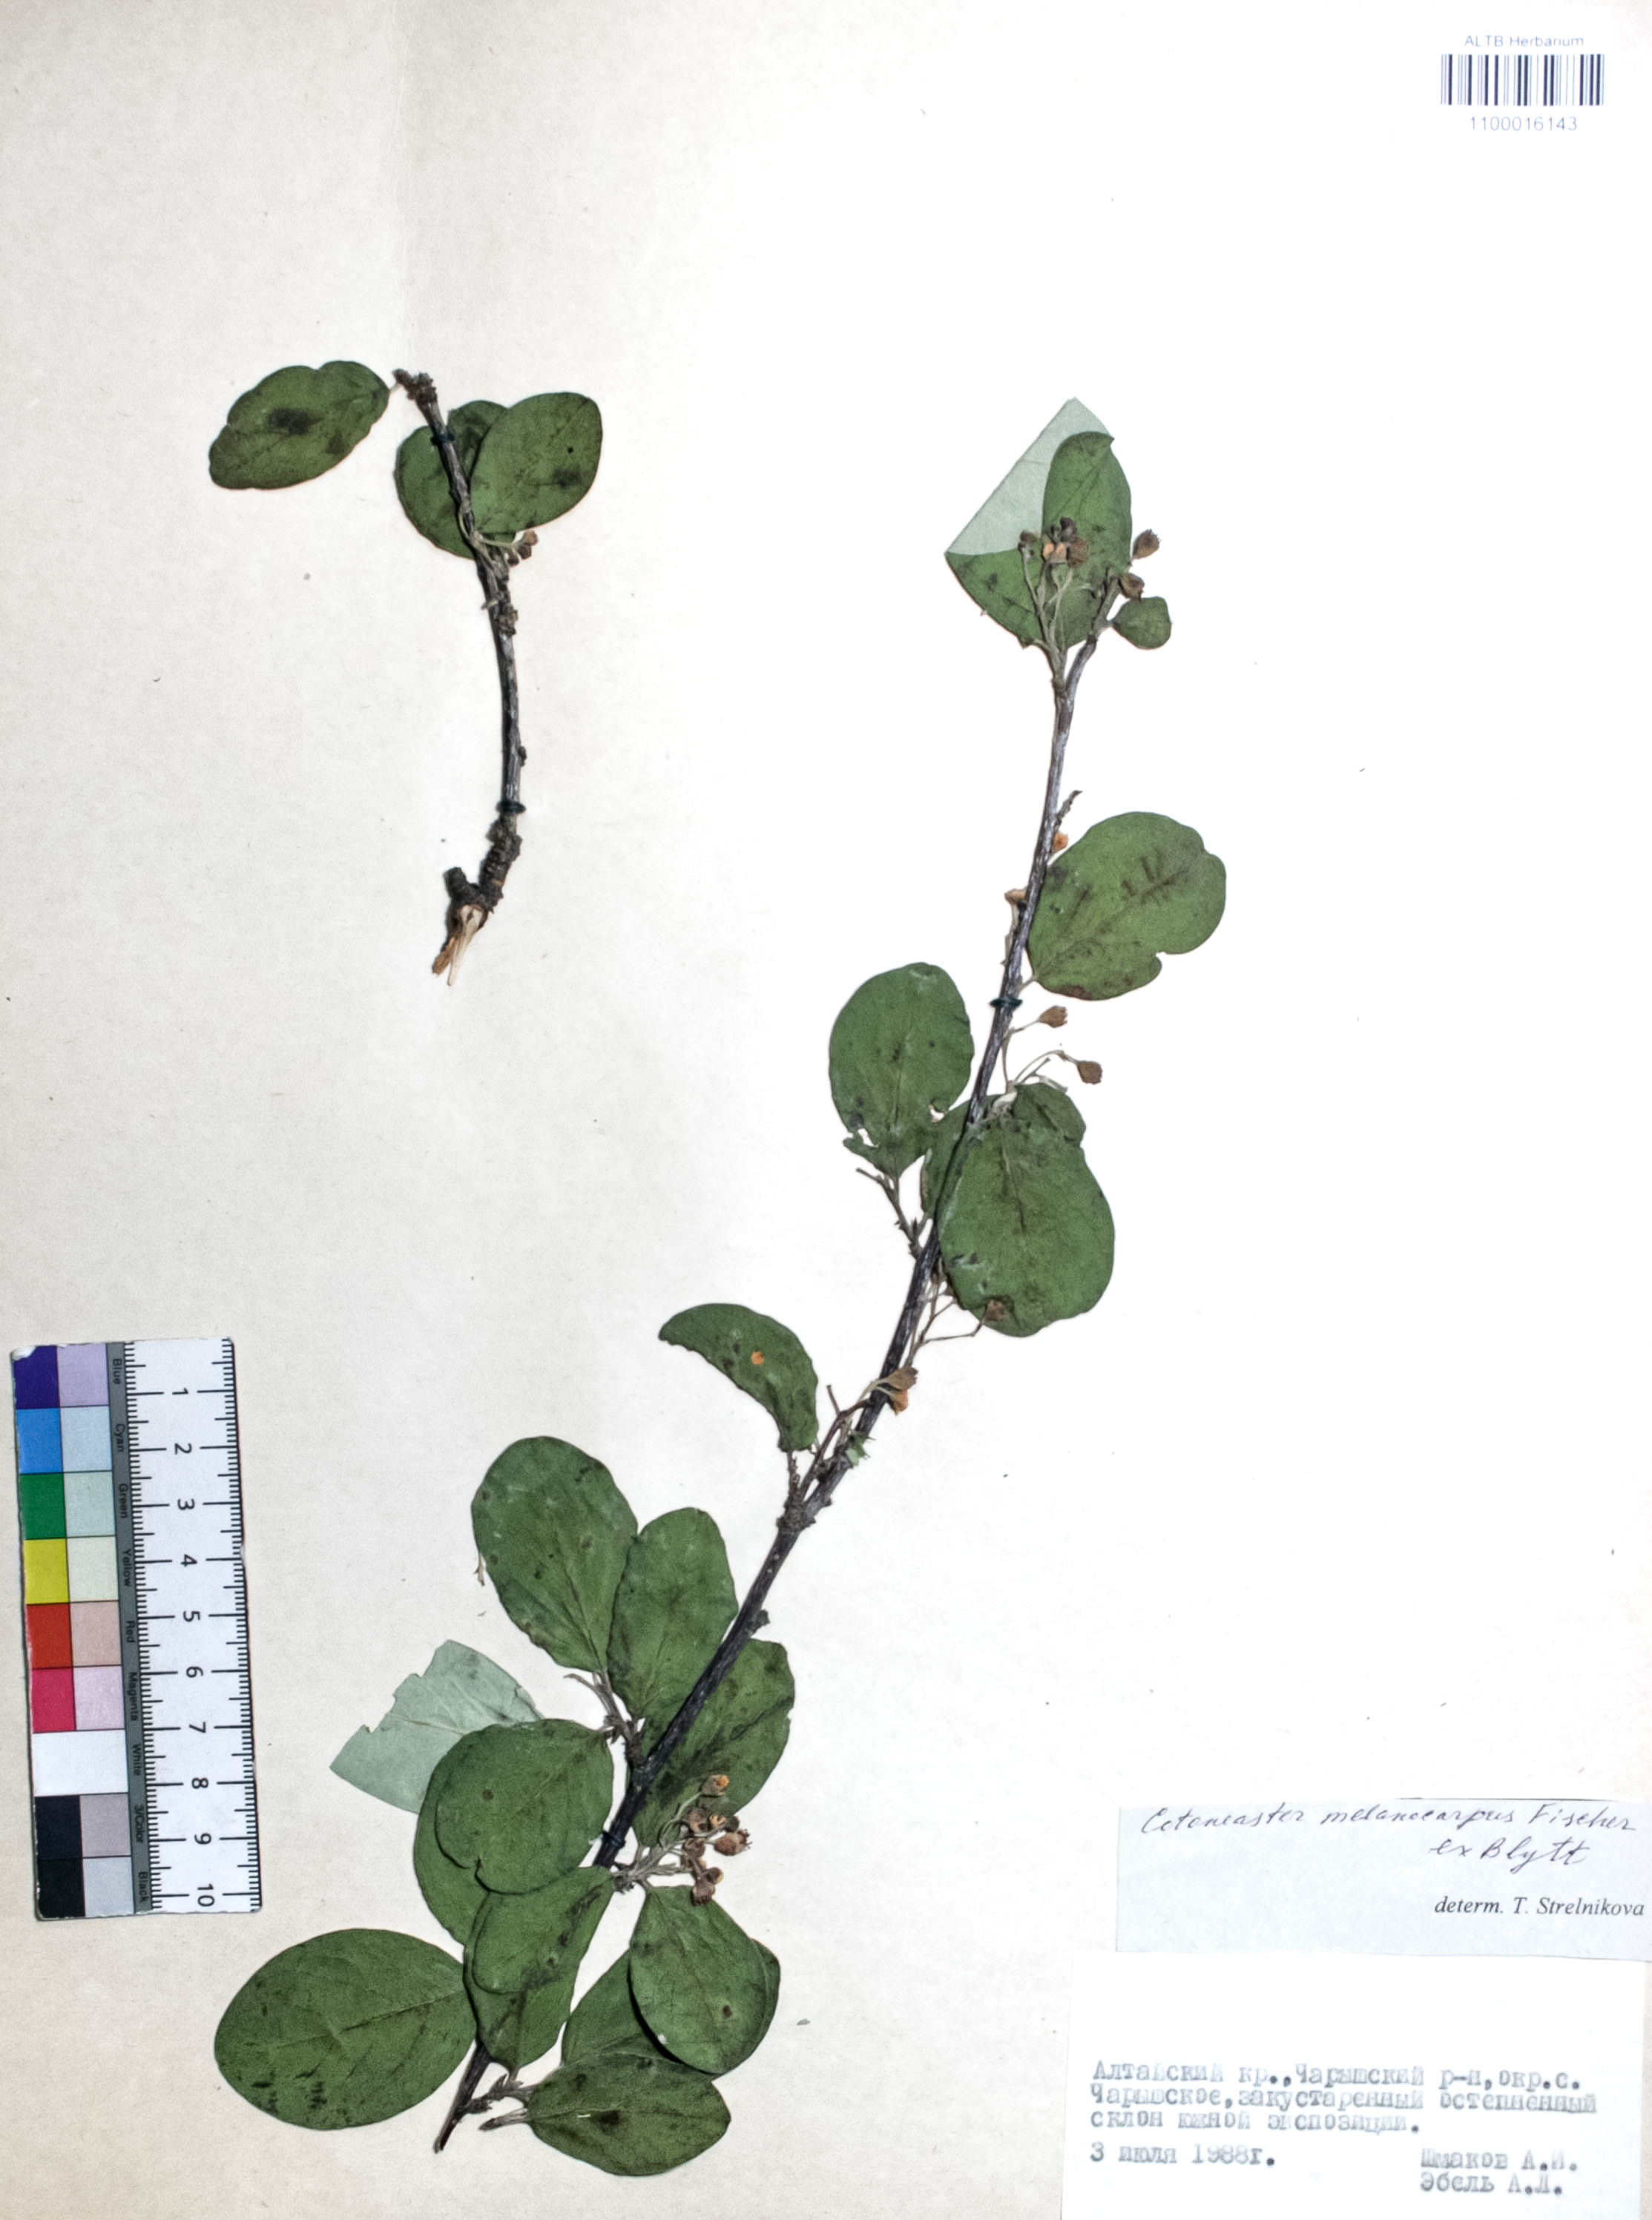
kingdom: Plantae
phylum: Tracheophyta
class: Magnoliopsida
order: Rosales
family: Rosaceae
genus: Cotoneaster
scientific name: Cotoneaster niger
